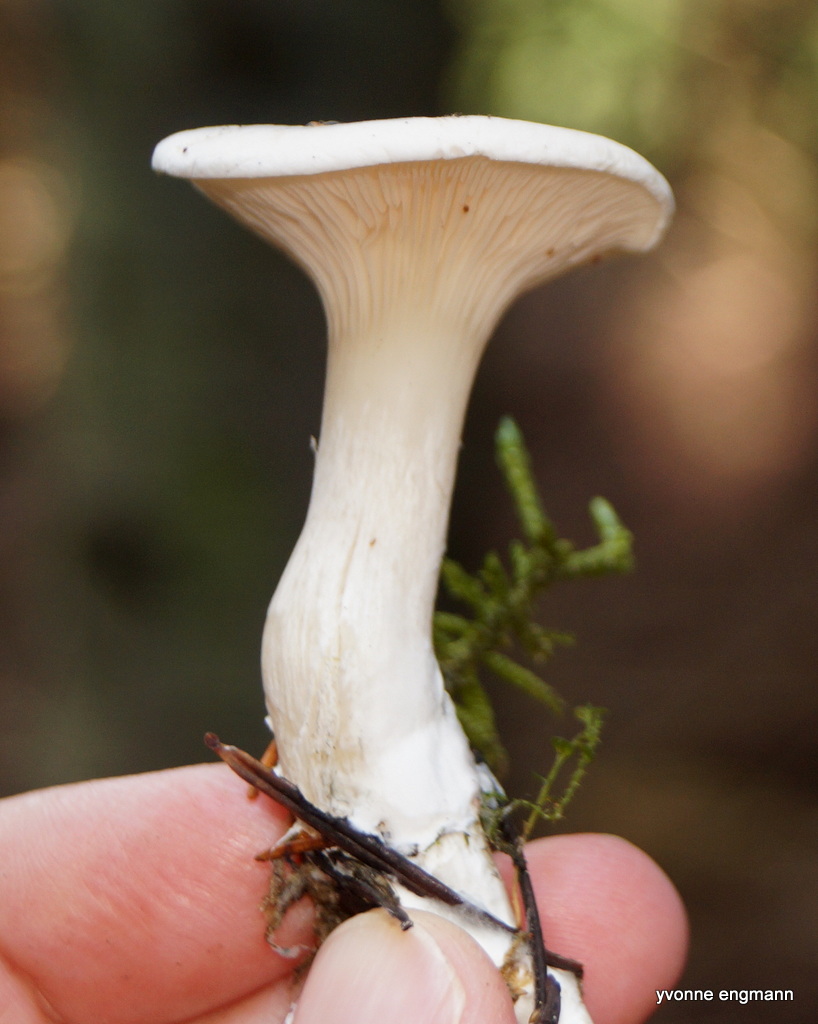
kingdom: Fungi
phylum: Basidiomycota
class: Agaricomycetes
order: Agaricales
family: Entolomataceae
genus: Clitopilus
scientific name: Clitopilus prunulus
